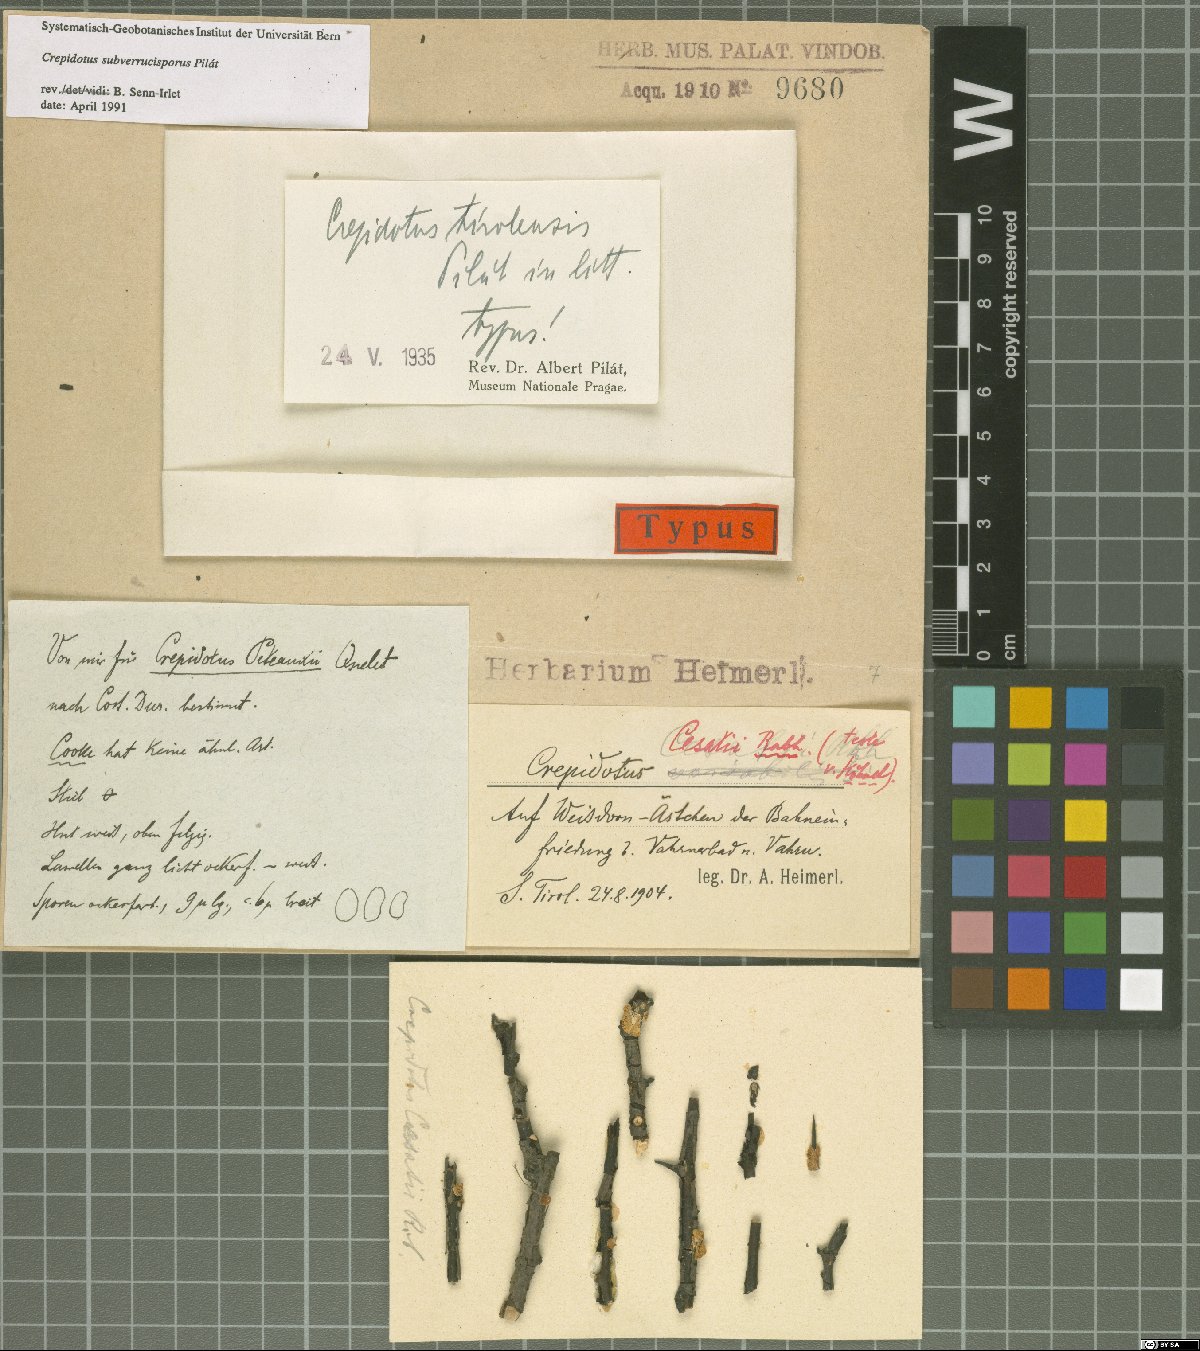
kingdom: Fungi
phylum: Basidiomycota
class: Agaricomycetes
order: Agaricales
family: Crepidotaceae
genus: Crepidotus
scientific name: Crepidotus tirolensis
